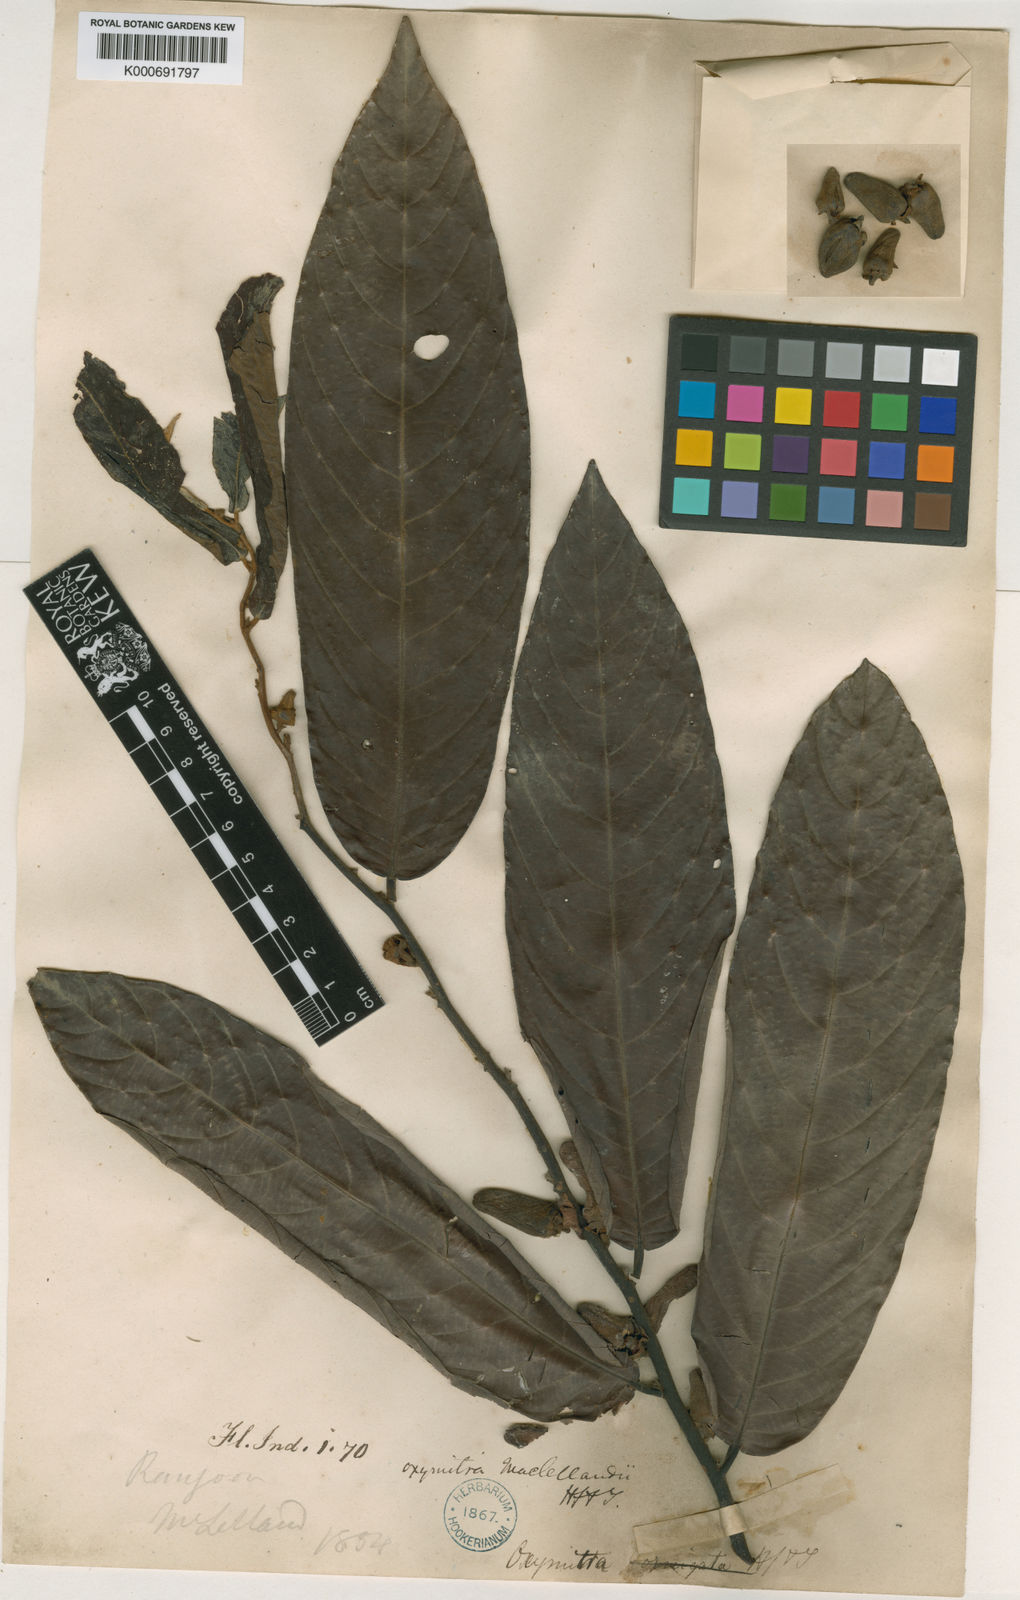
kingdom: Plantae
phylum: Tracheophyta
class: Magnoliopsida
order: Magnoliales
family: Annonaceae
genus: Friesodielsia
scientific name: Friesodielsia maclellandii
